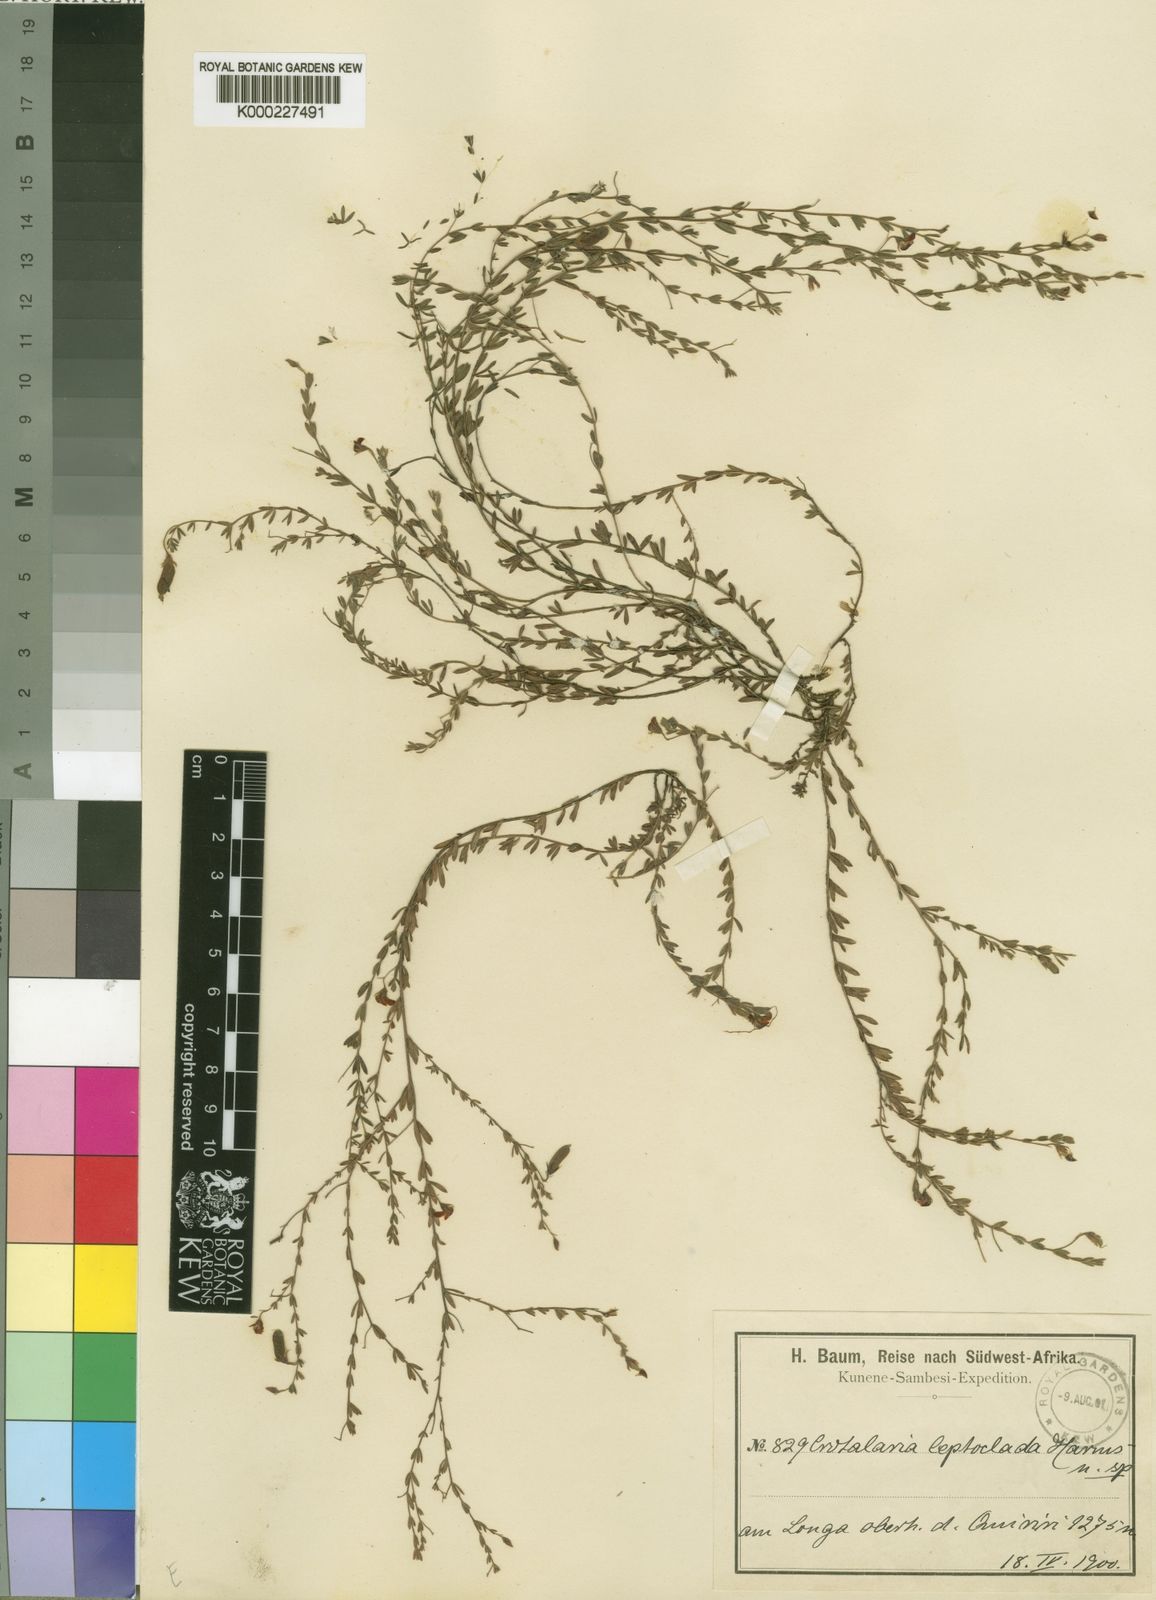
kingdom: Plantae
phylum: Tracheophyta
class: Magnoliopsida
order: Fabales
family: Fabaceae
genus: Crotalaria
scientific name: Crotalaria leptoclada
